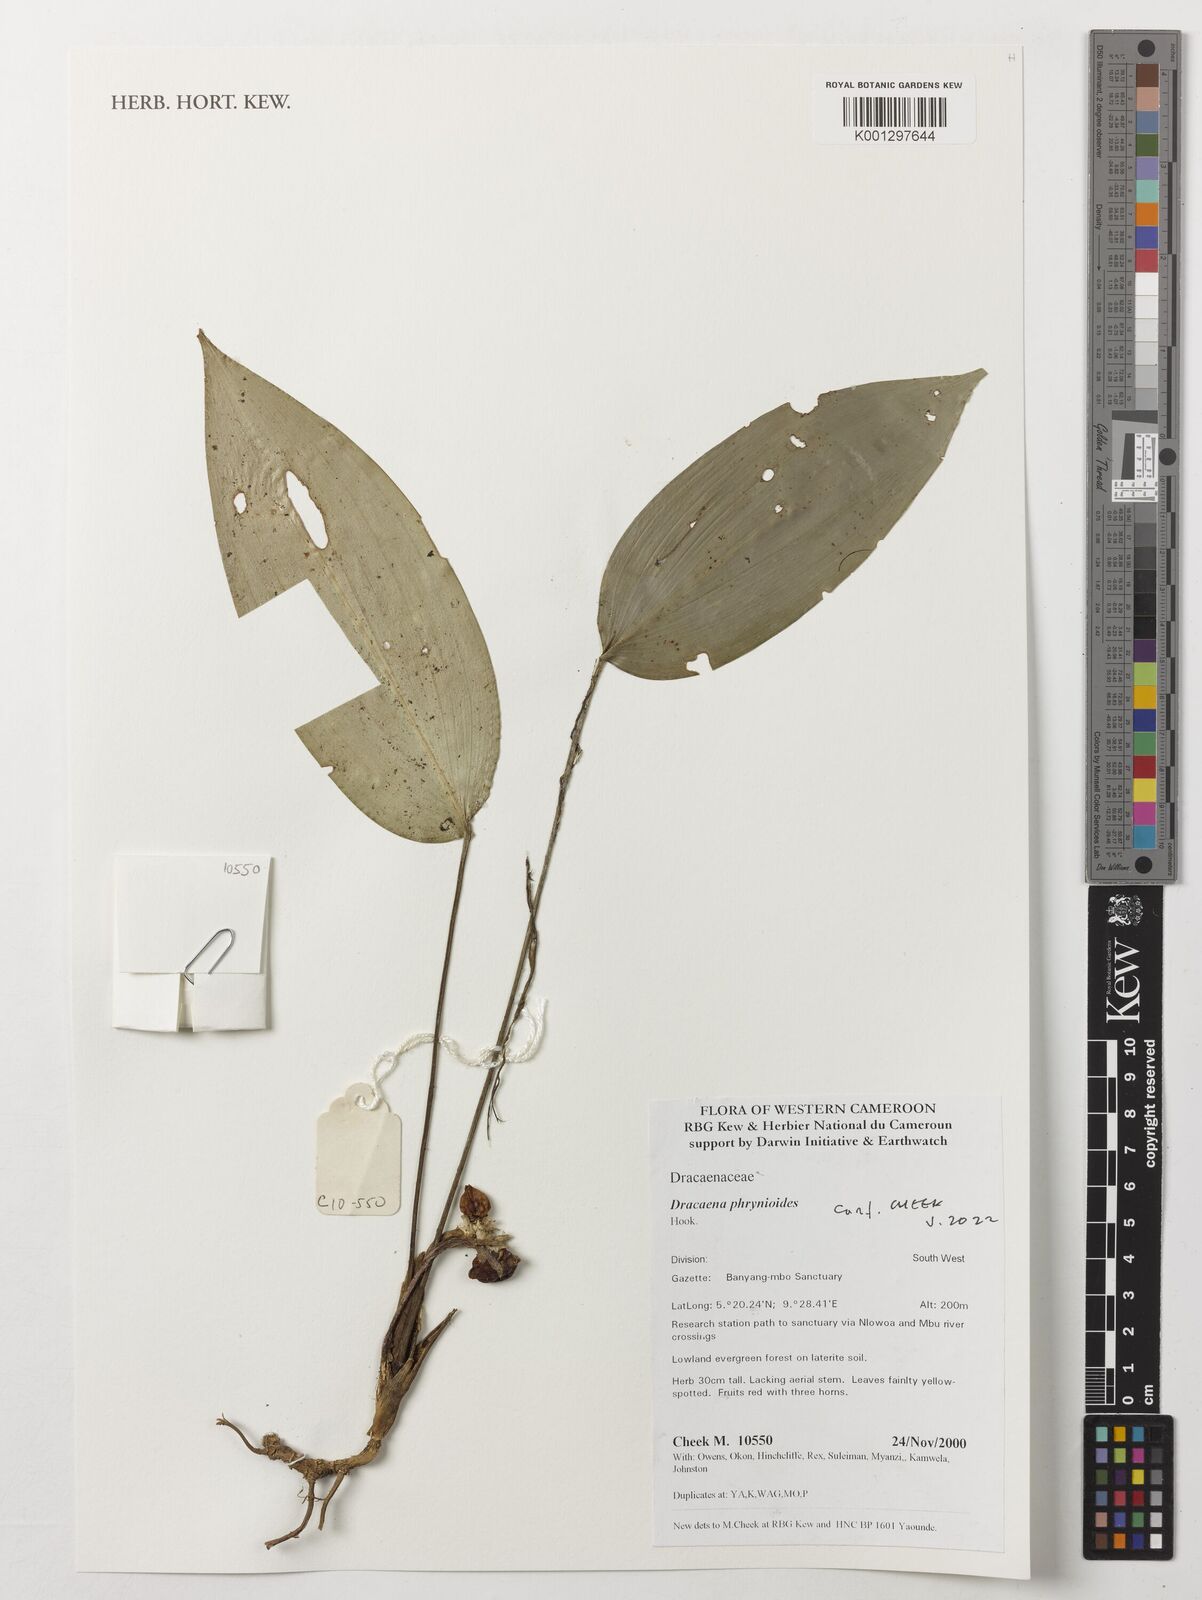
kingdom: Plantae
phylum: Tracheophyta
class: Liliopsida
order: Asparagales
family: Asparagaceae
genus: Dracaena
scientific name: Dracaena phrynioides
